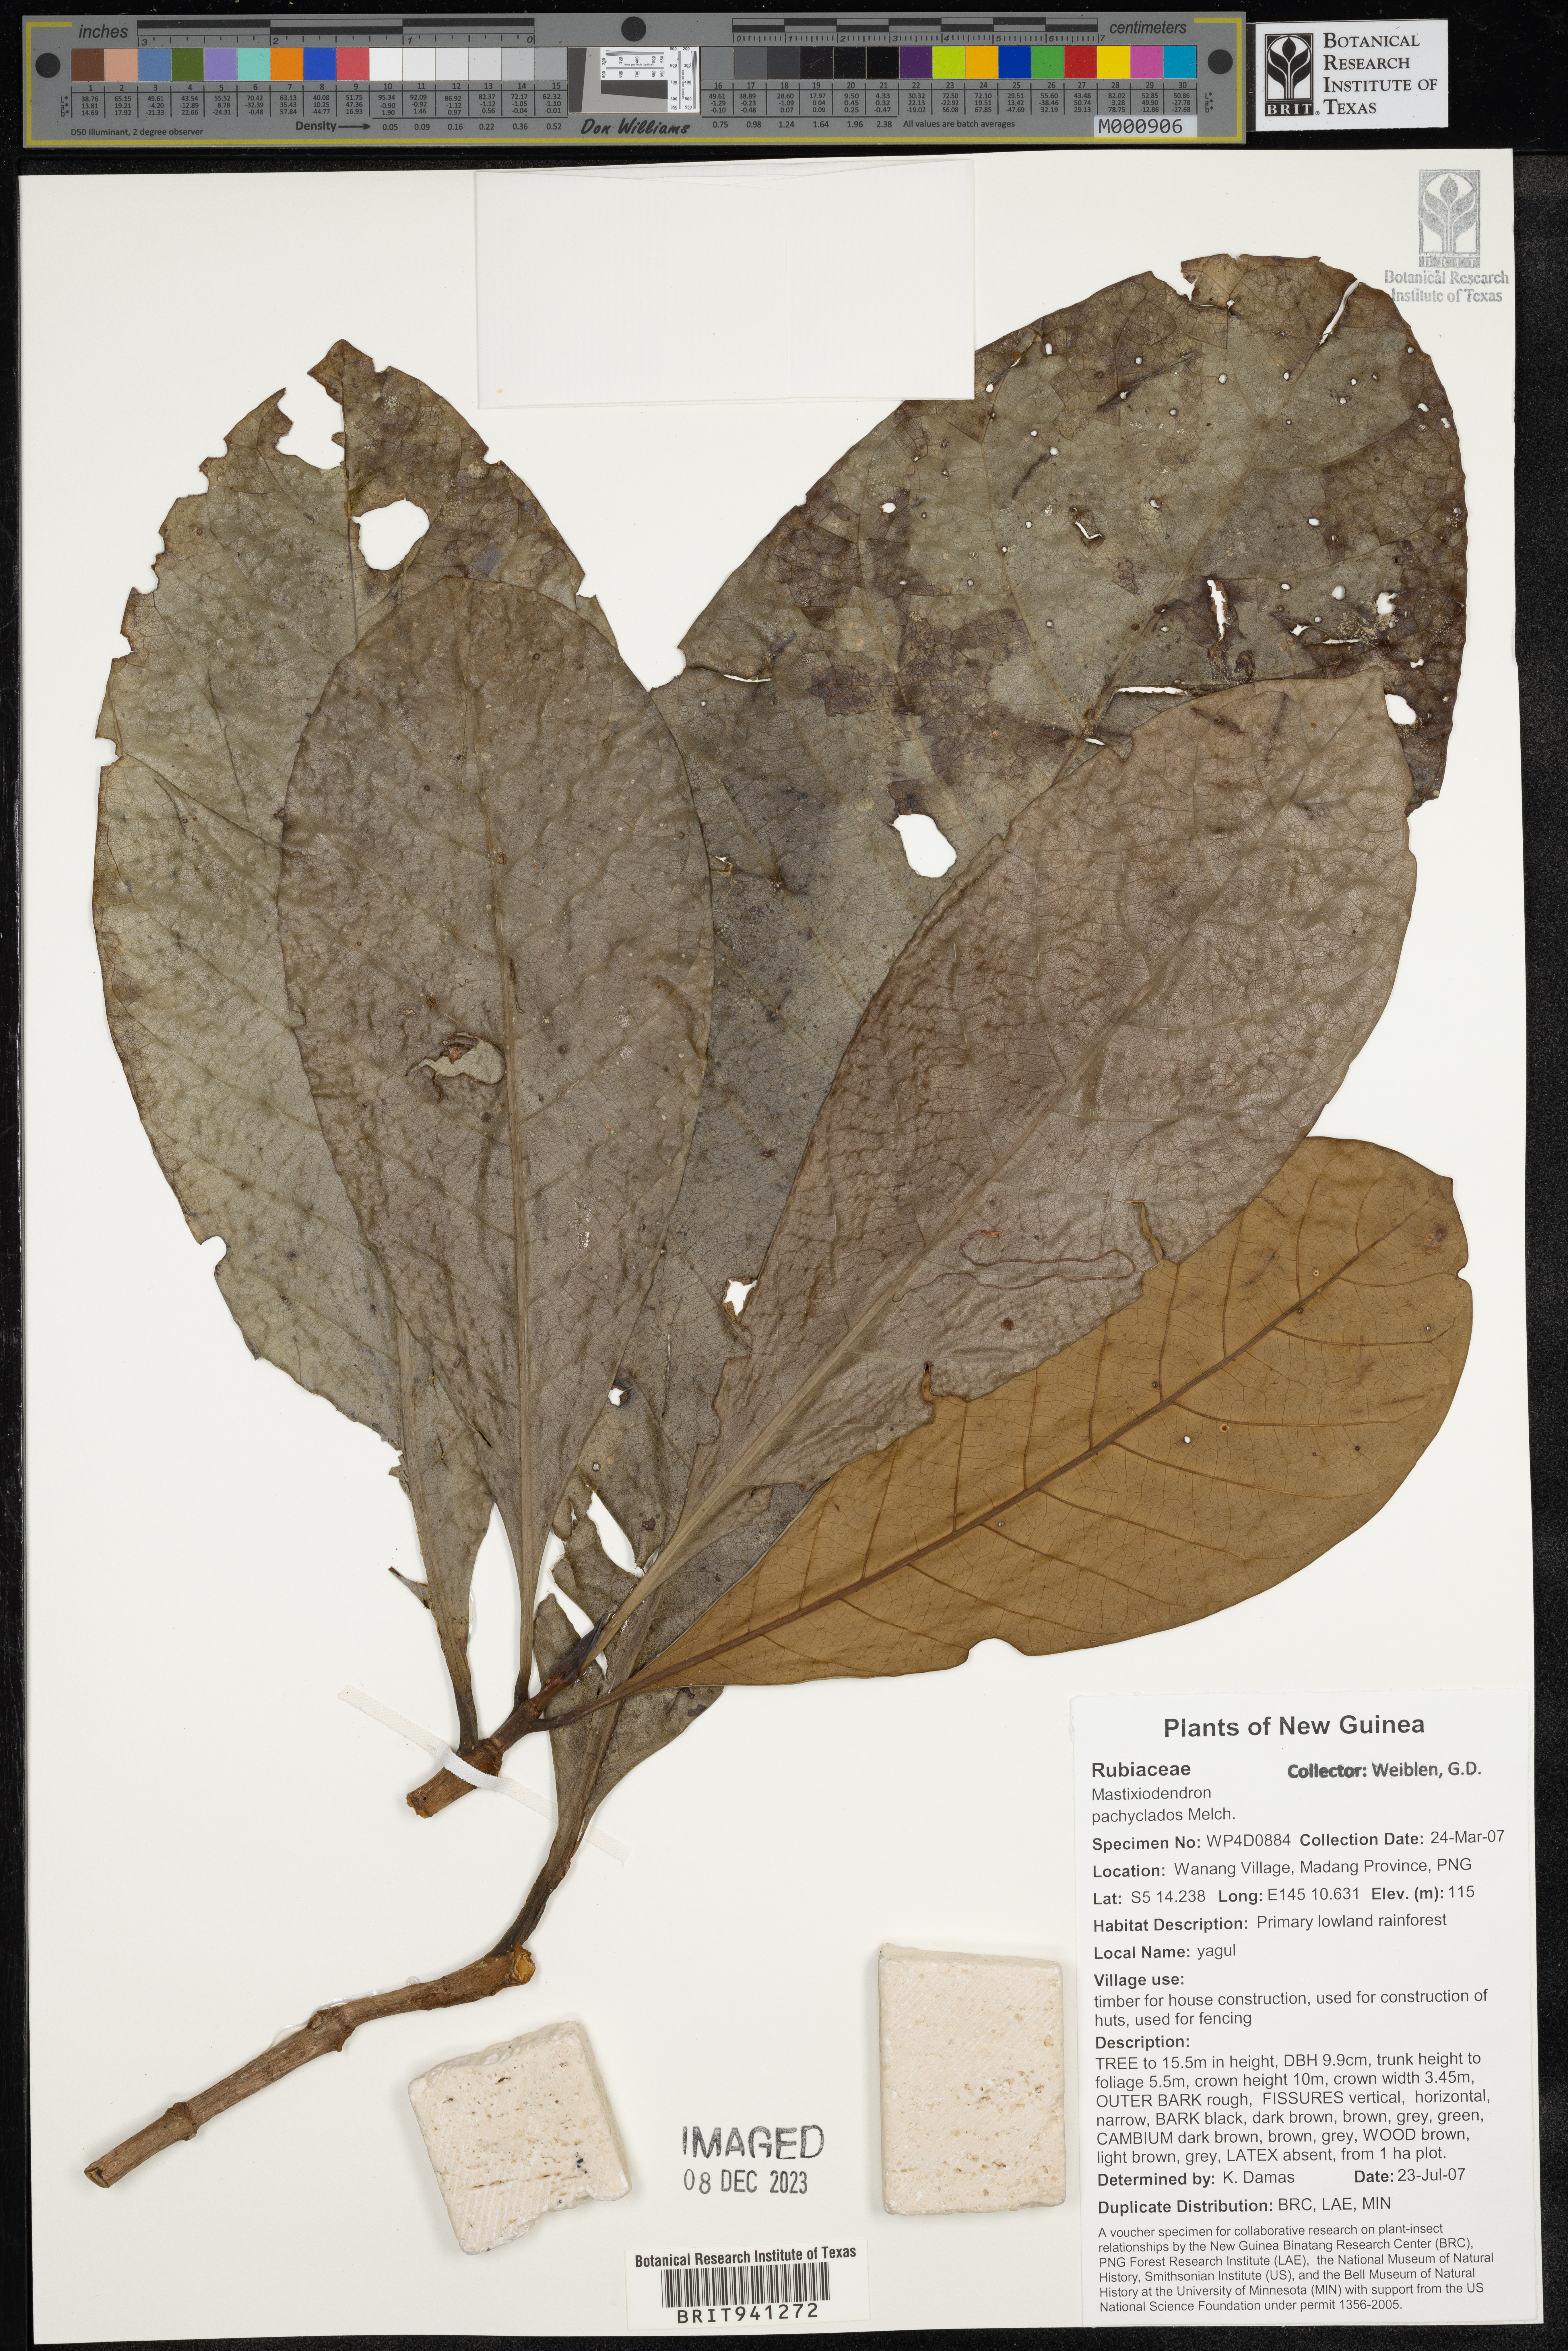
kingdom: Plantae
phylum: Tracheophyta
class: Magnoliopsida
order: Gentianales
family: Rubiaceae
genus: Mastixiodendron
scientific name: Mastixiodendron
